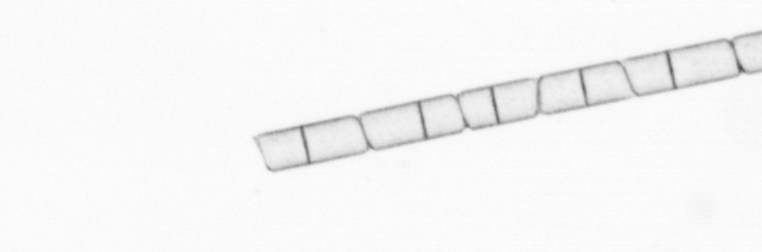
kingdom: Chromista
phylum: Ochrophyta
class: Bacillariophyceae
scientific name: Bacillariophyceae
